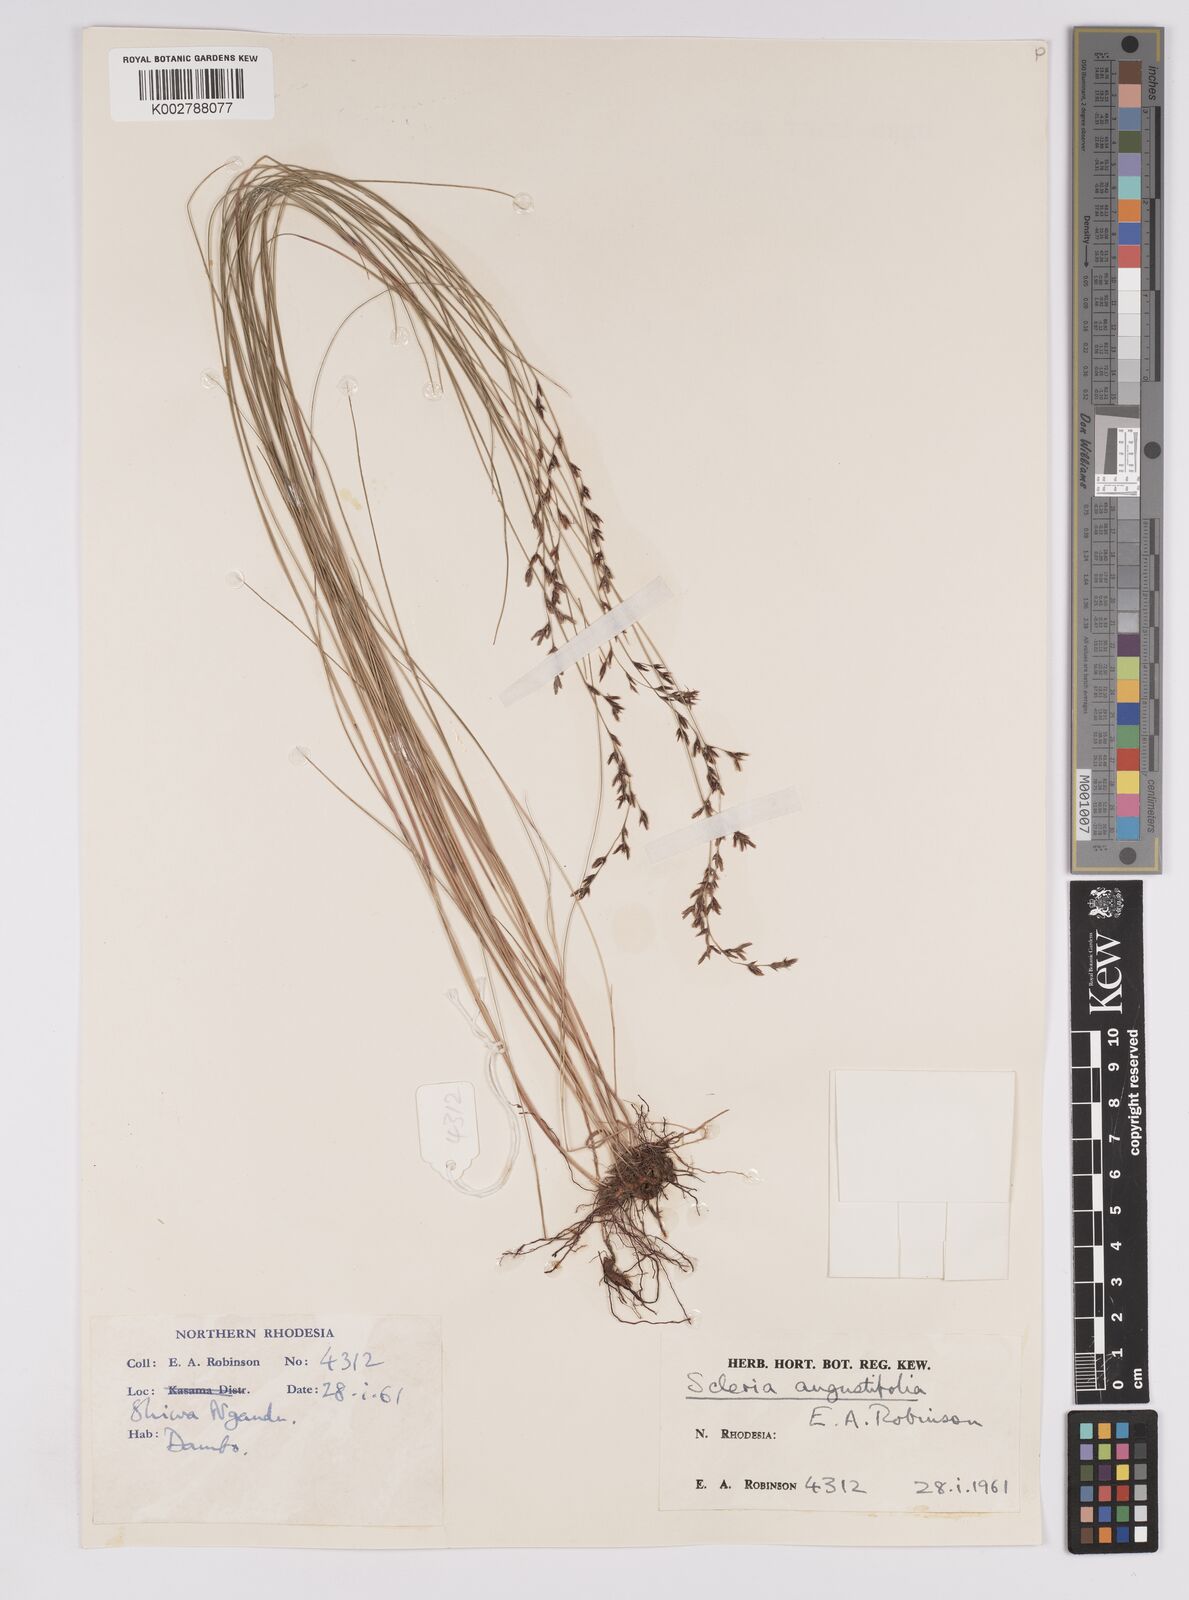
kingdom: Plantae
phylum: Tracheophyta
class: Liliopsida
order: Poales
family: Cyperaceae
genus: Scleria
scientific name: Scleria angustifolia
